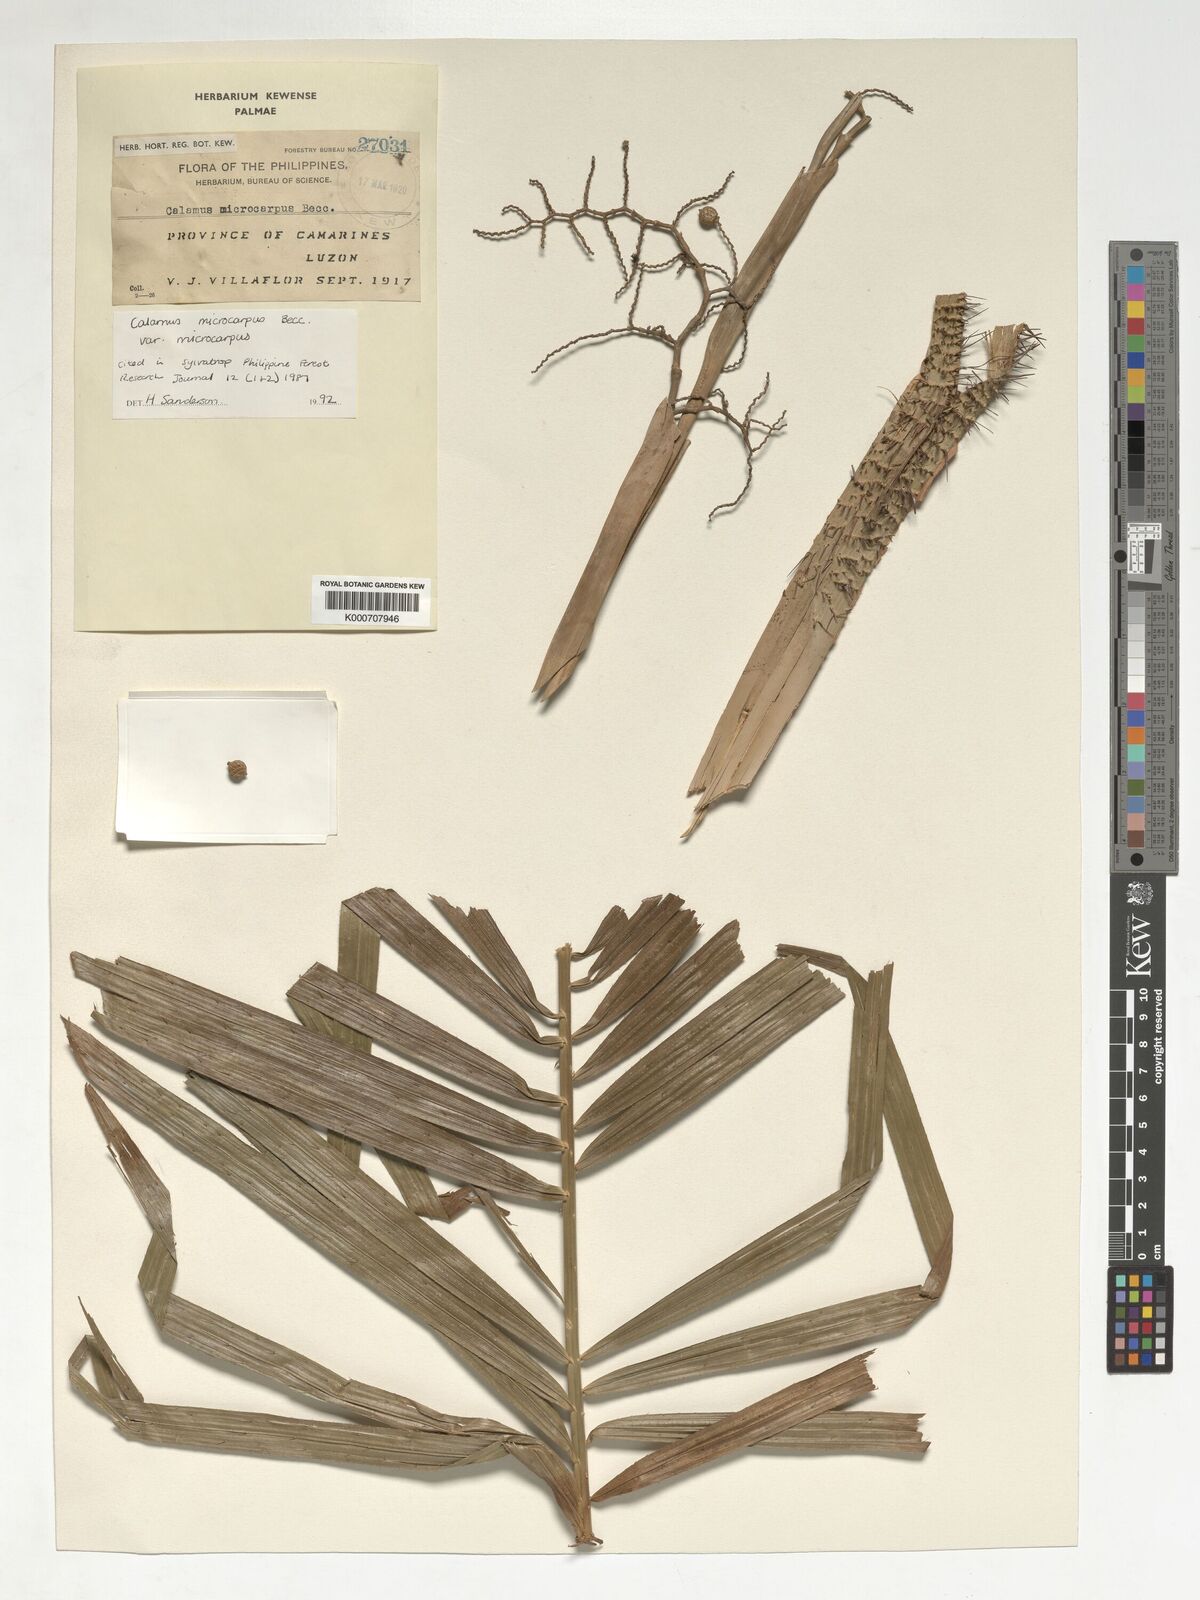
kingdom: Plantae
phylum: Tracheophyta
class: Liliopsida
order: Arecales
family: Arecaceae
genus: Calamus
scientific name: Calamus siphonospathus
